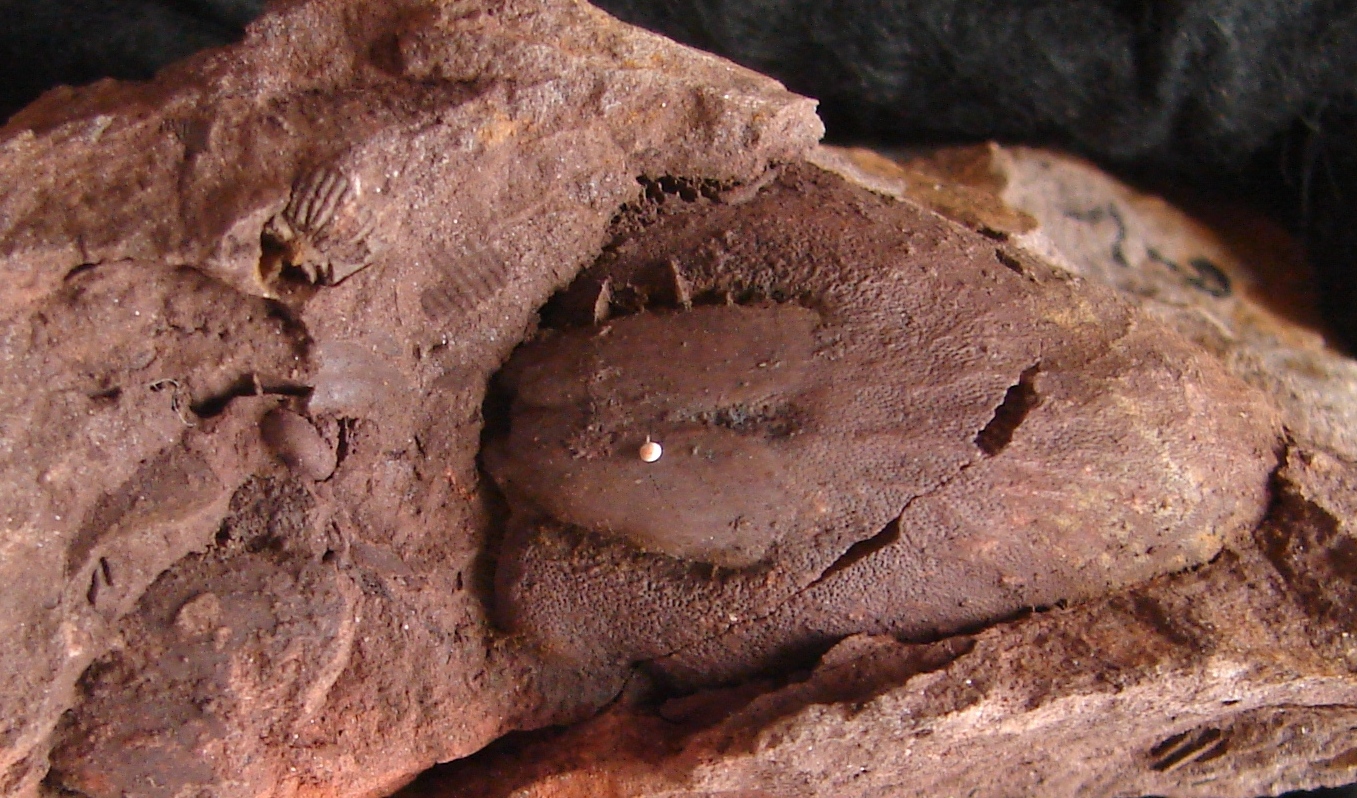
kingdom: Animalia
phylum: Brachiopoda
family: Douvillinidae
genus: Protodouvillina
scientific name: Protodouvillina
